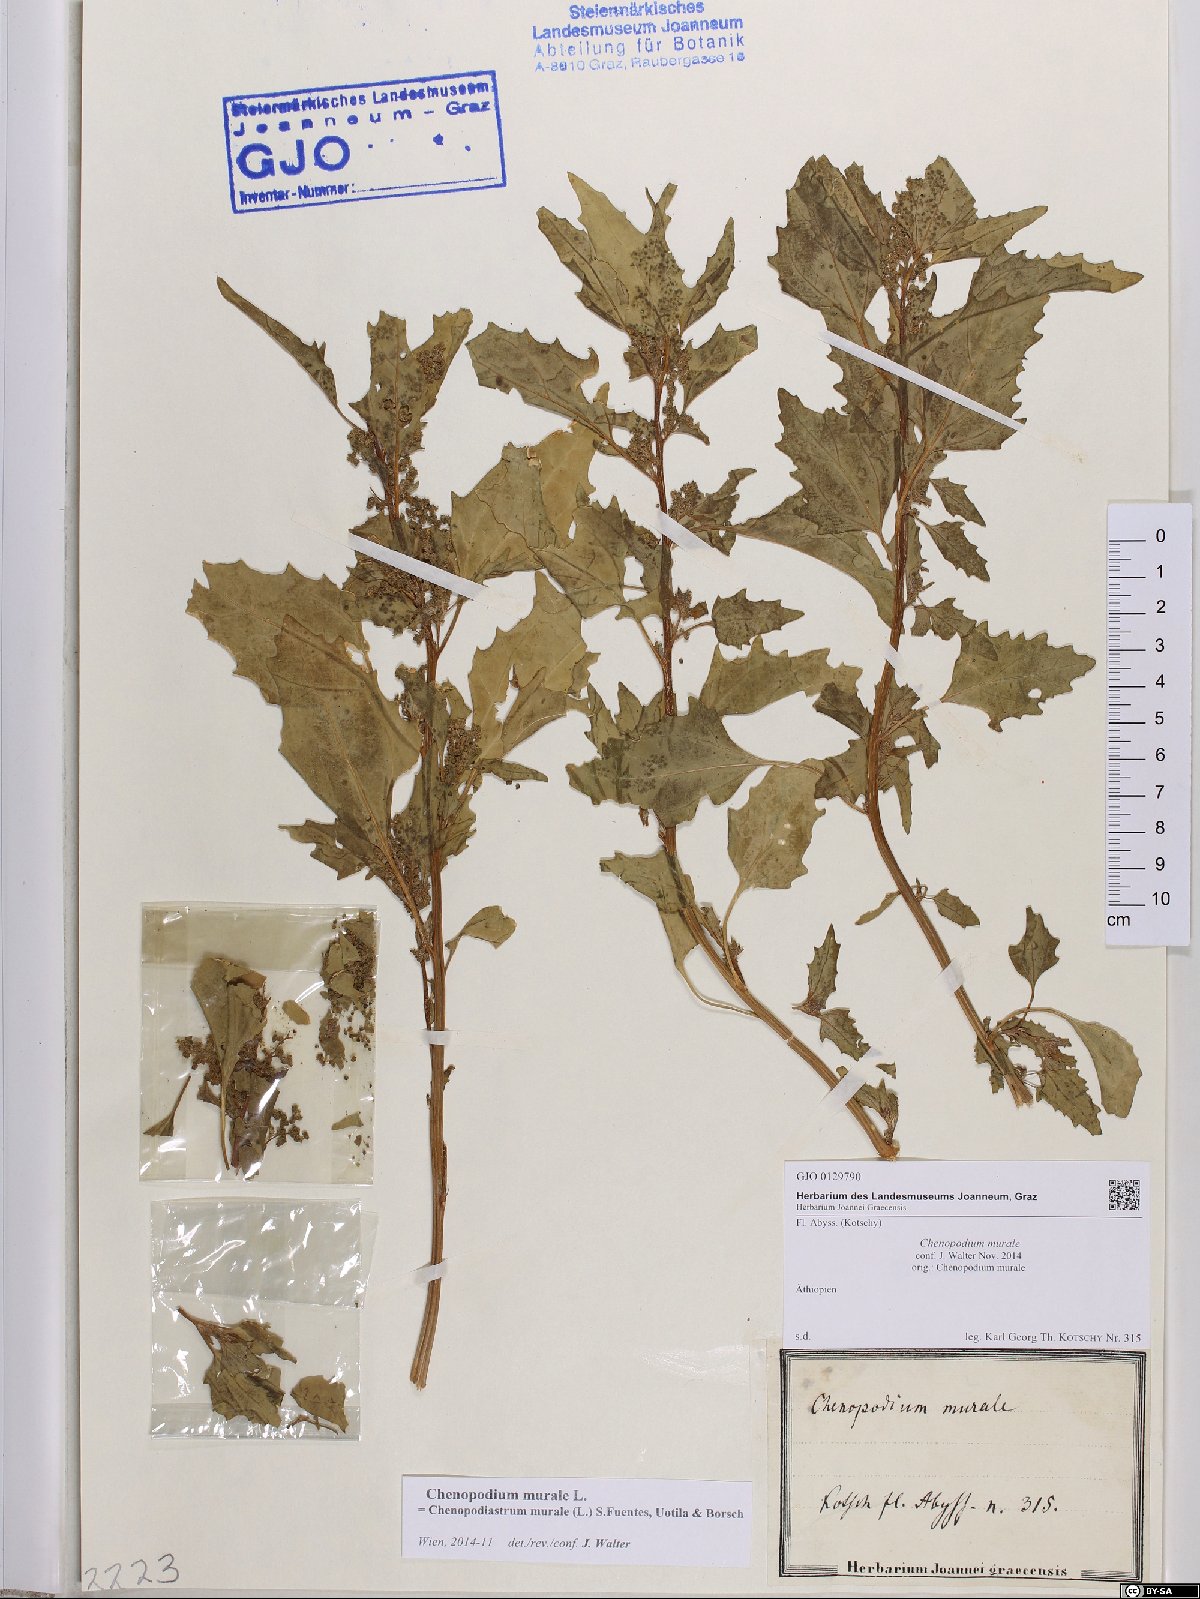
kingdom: Plantae
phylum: Tracheophyta
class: Magnoliopsida
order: Caryophyllales
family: Amaranthaceae
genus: Chenopodiastrum
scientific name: Chenopodiastrum murale
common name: Sowbane
